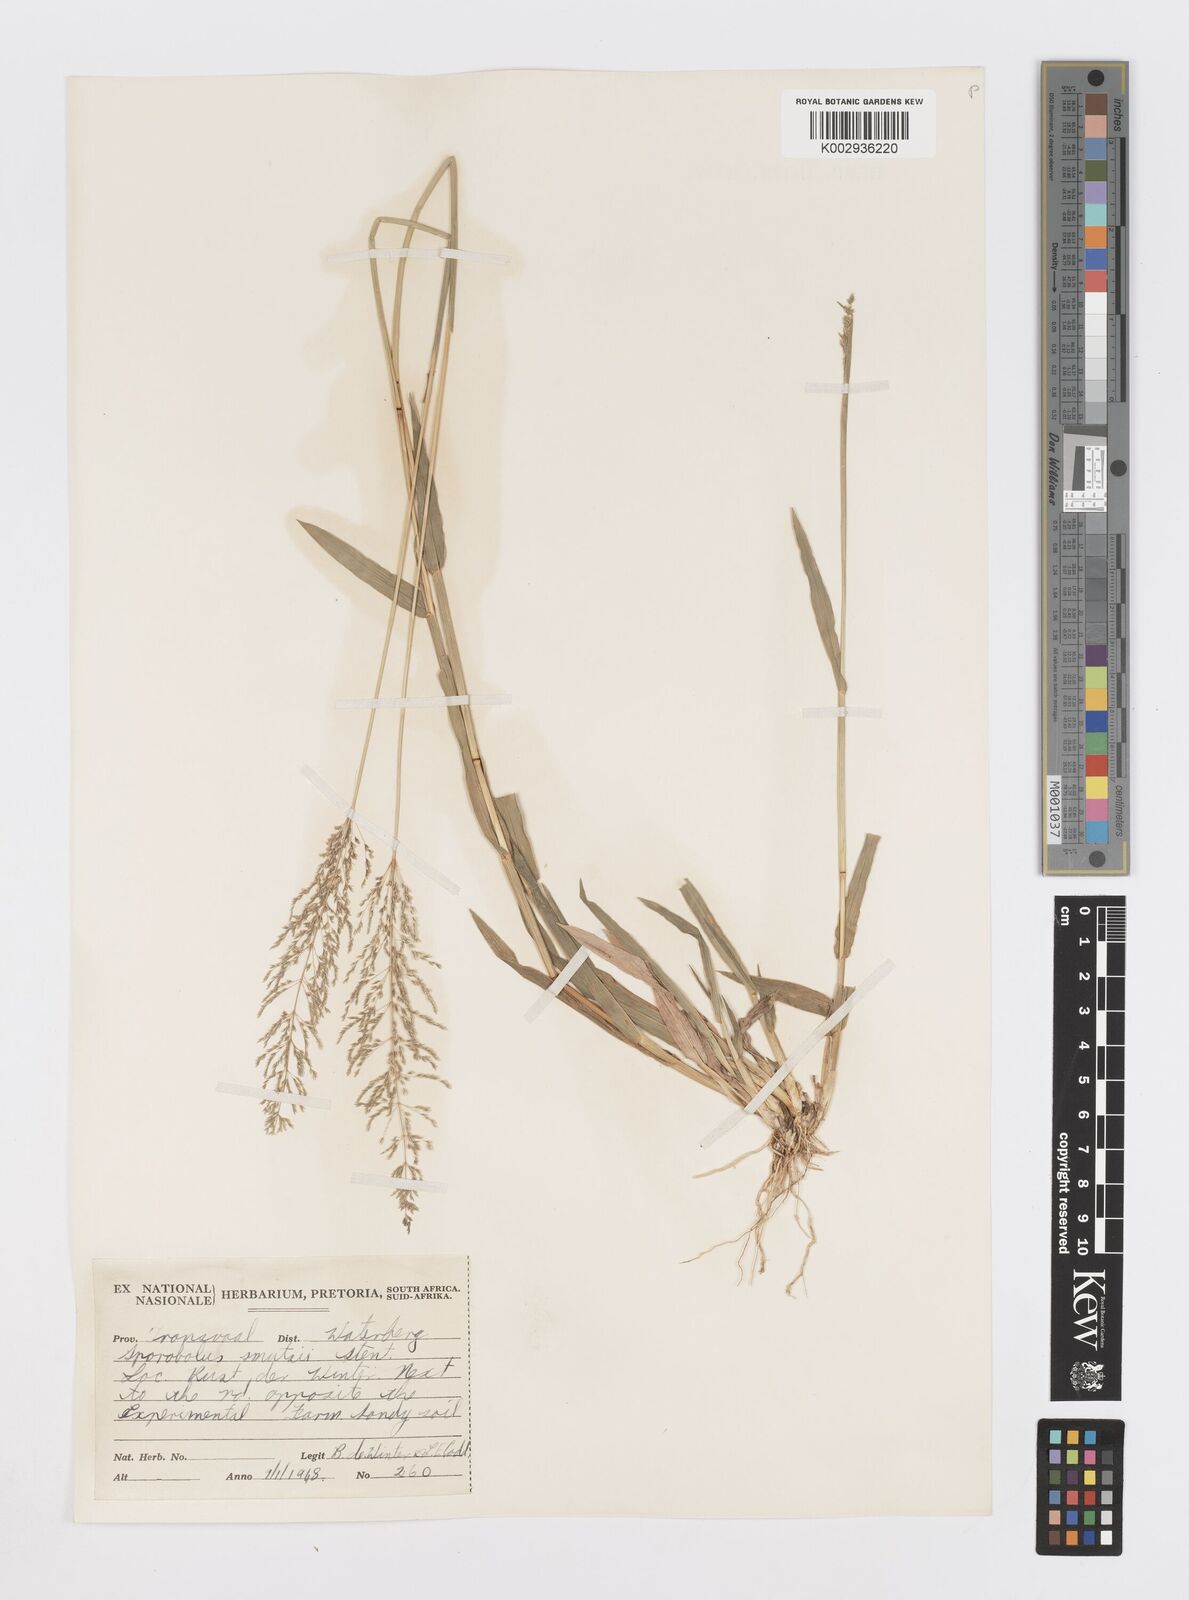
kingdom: Plantae
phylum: Tracheophyta
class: Liliopsida
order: Poales
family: Poaceae
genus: Sporobolus
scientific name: Sporobolus ioclados
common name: Pan dropseed
